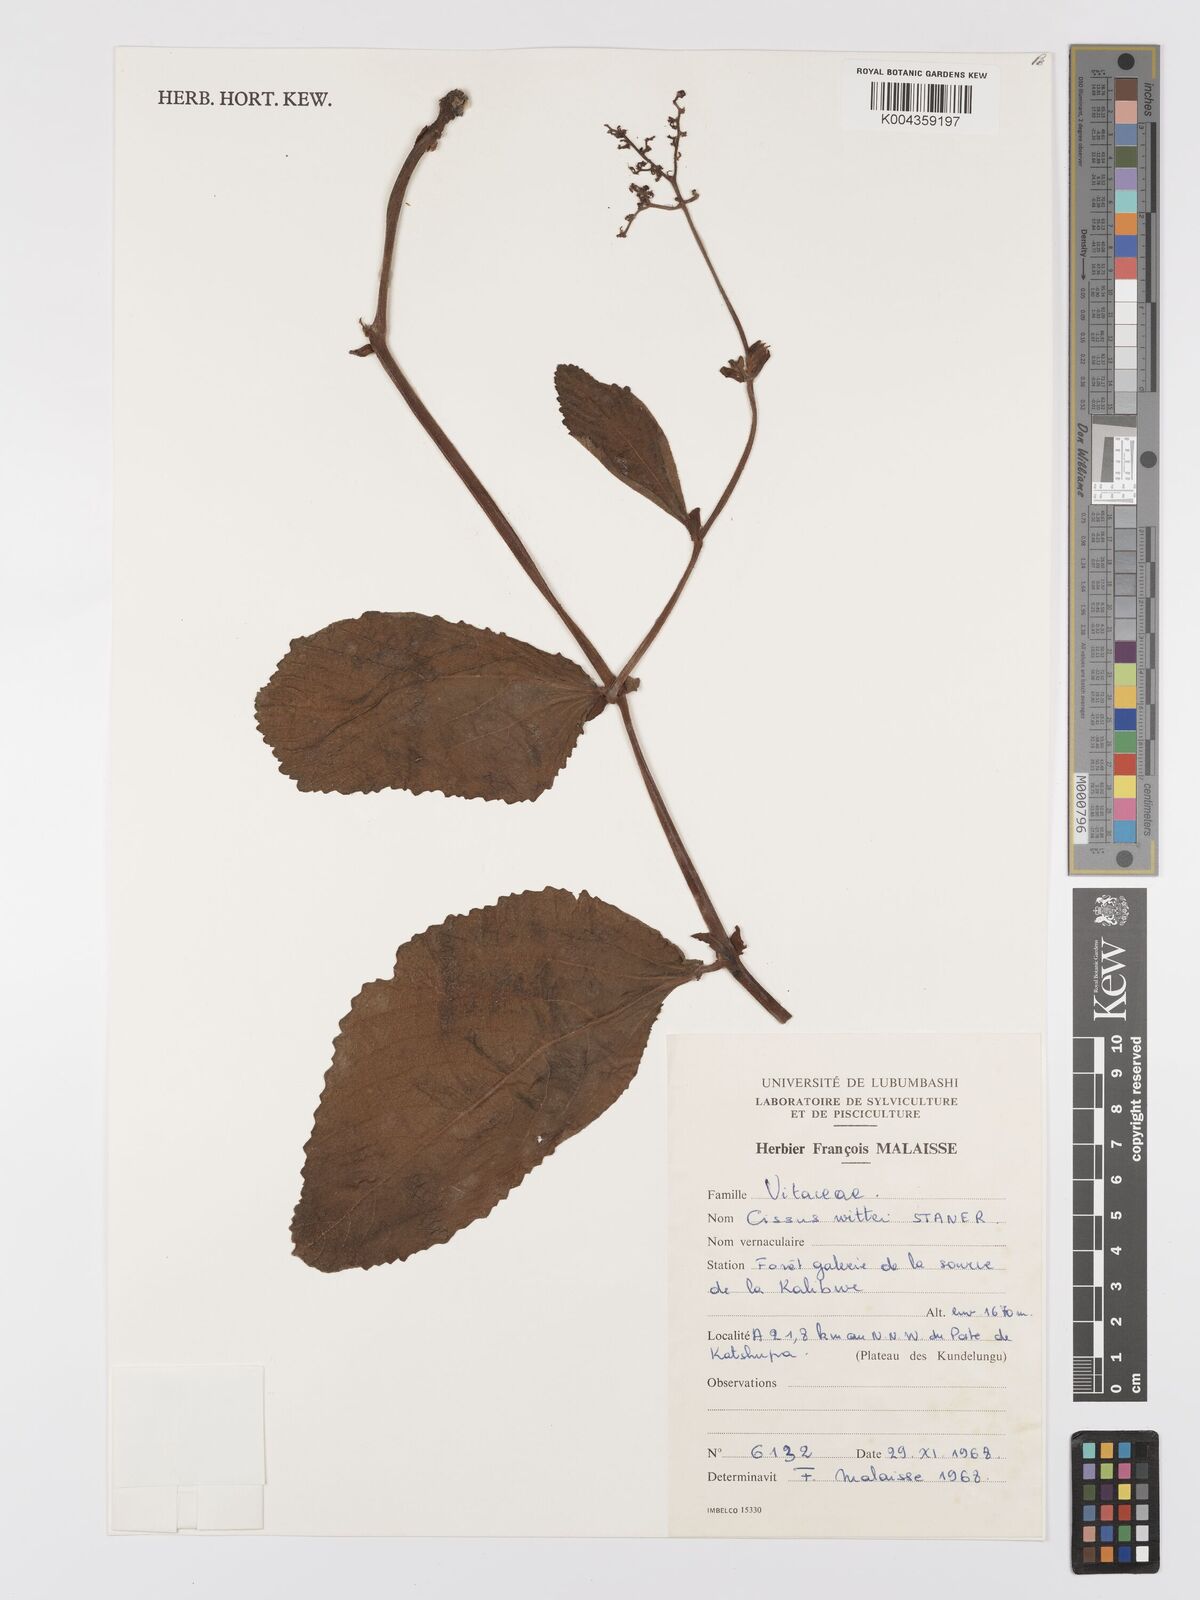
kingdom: Plantae
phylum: Tracheophyta
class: Magnoliopsida
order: Vitales
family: Vitaceae
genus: Cyphostemma
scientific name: Cyphostemma wittei
